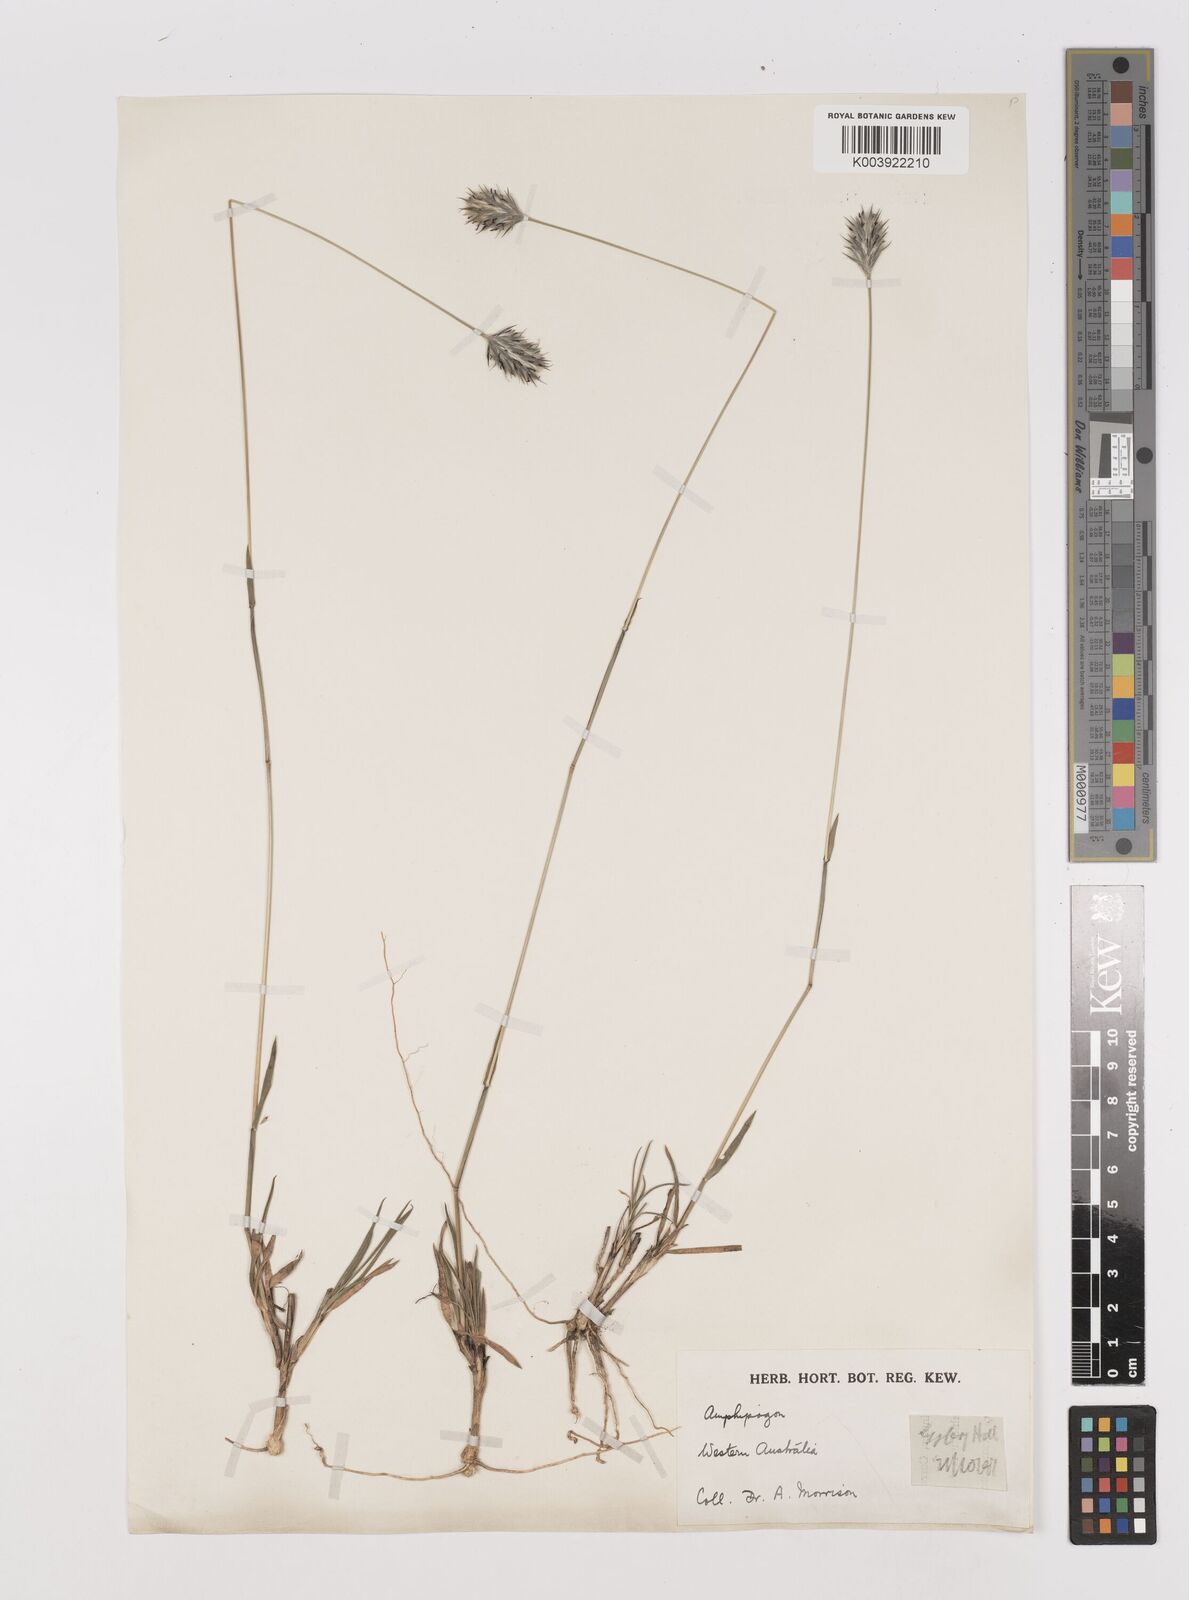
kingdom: Plantae
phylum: Tracheophyta
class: Liliopsida
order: Poales
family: Poaceae
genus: Neurachne
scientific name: Neurachne alopecuroidea
